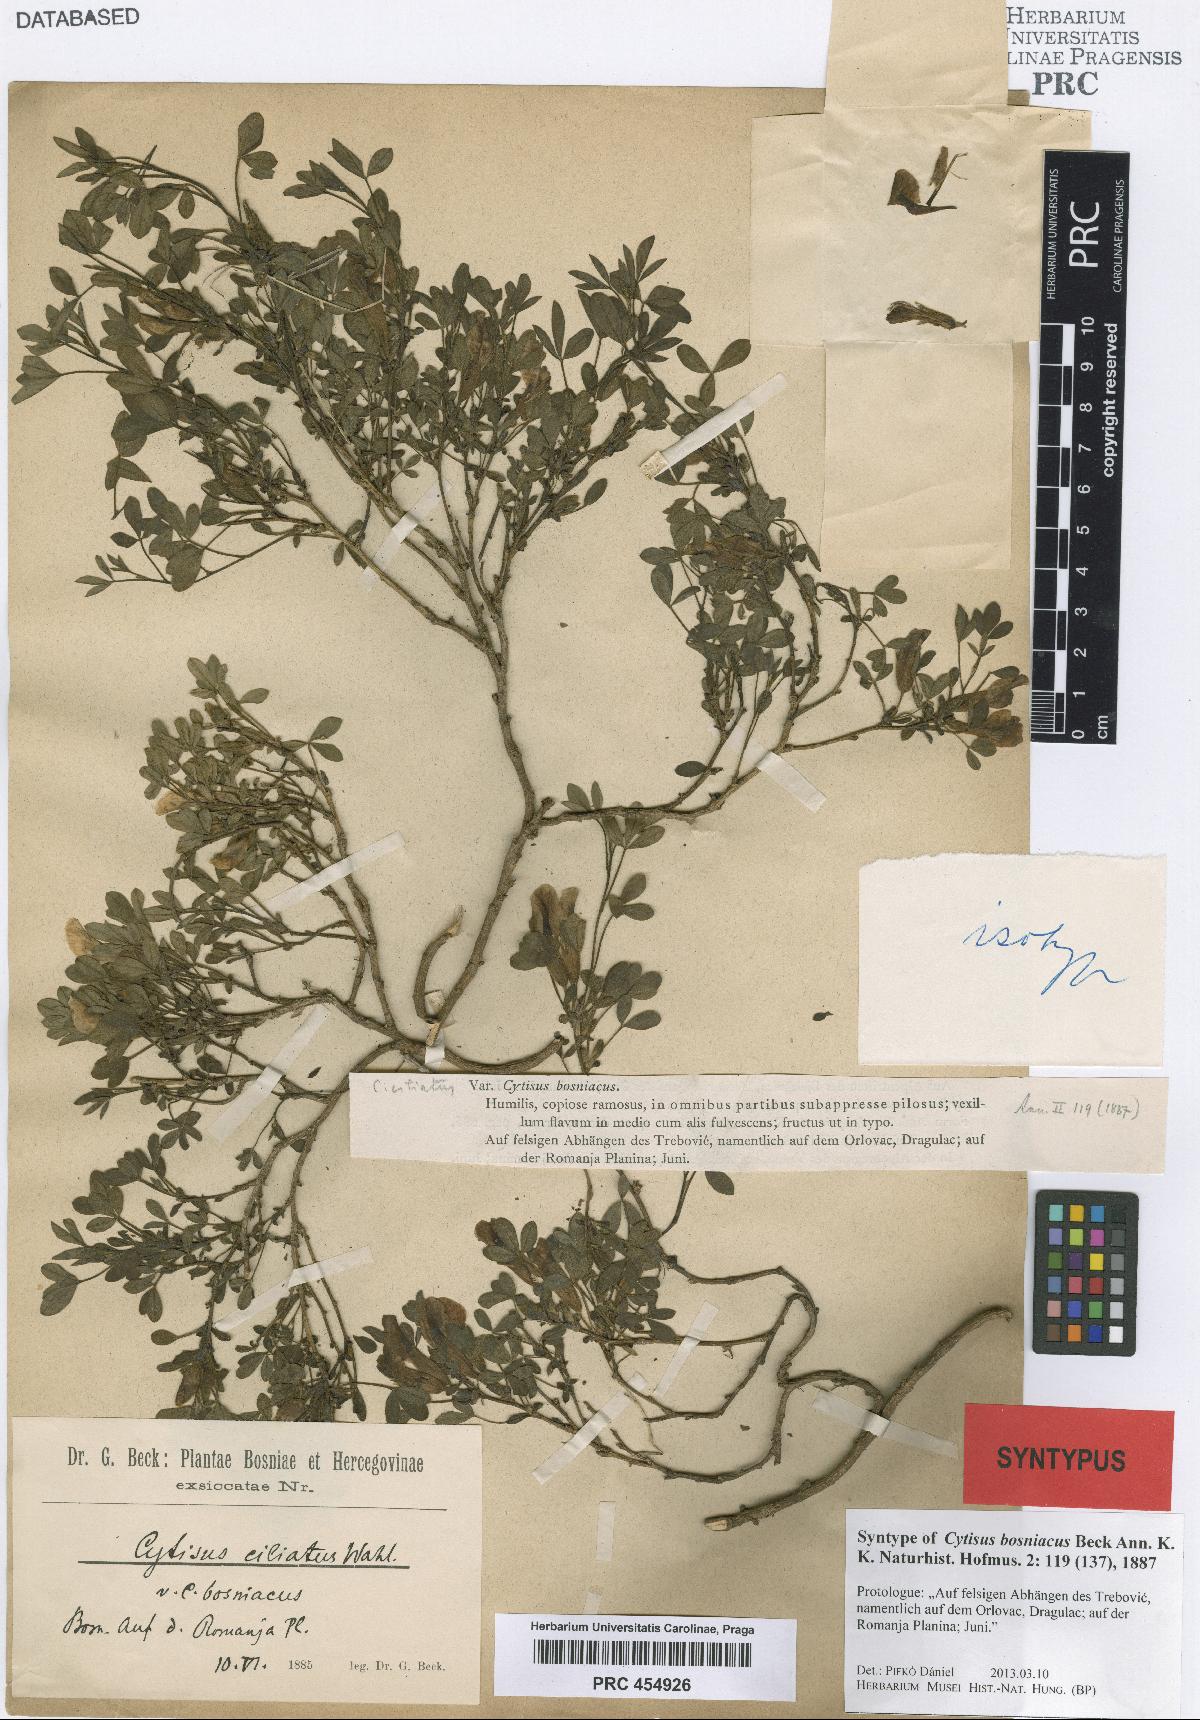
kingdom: Plantae
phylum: Tracheophyta
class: Magnoliopsida
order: Fabales
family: Fabaceae
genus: Chamaecytisus
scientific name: Chamaecytisus hirsutus
